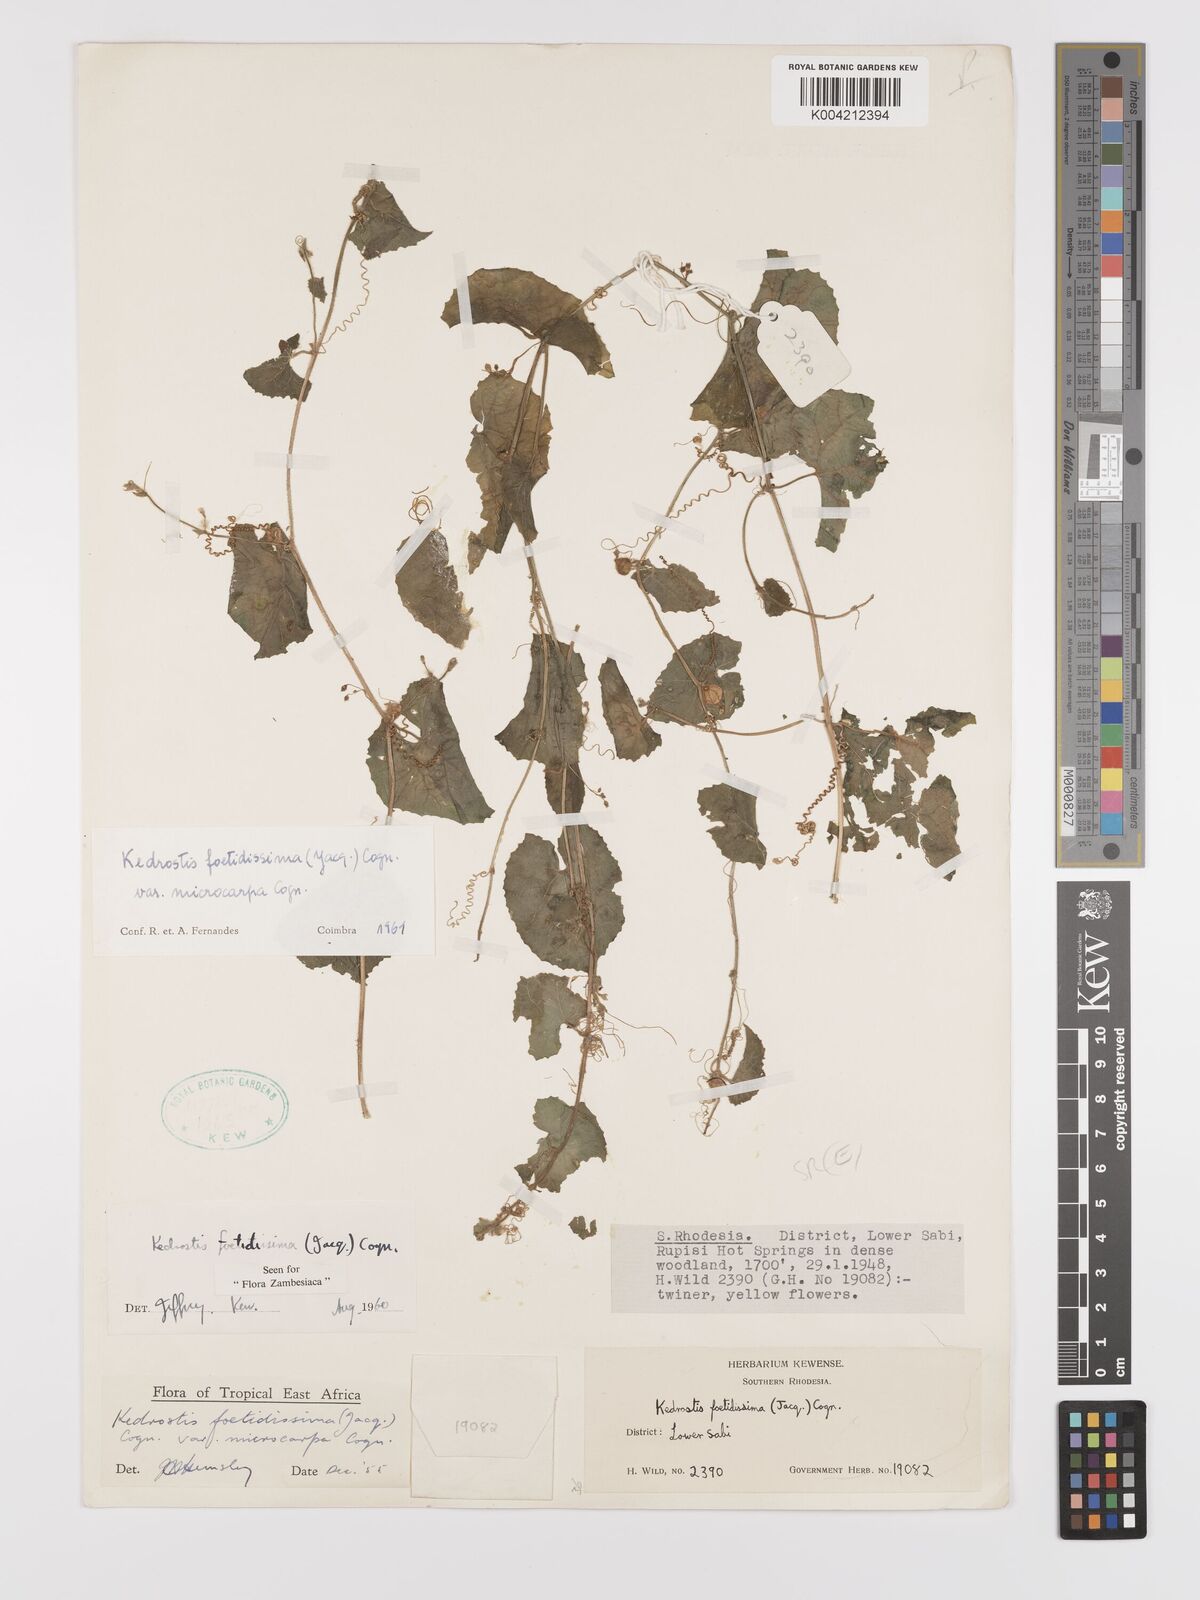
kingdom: Plantae
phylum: Tracheophyta
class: Magnoliopsida
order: Cucurbitales
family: Cucurbitaceae
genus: Kedrostis
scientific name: Kedrostis foetidissima
